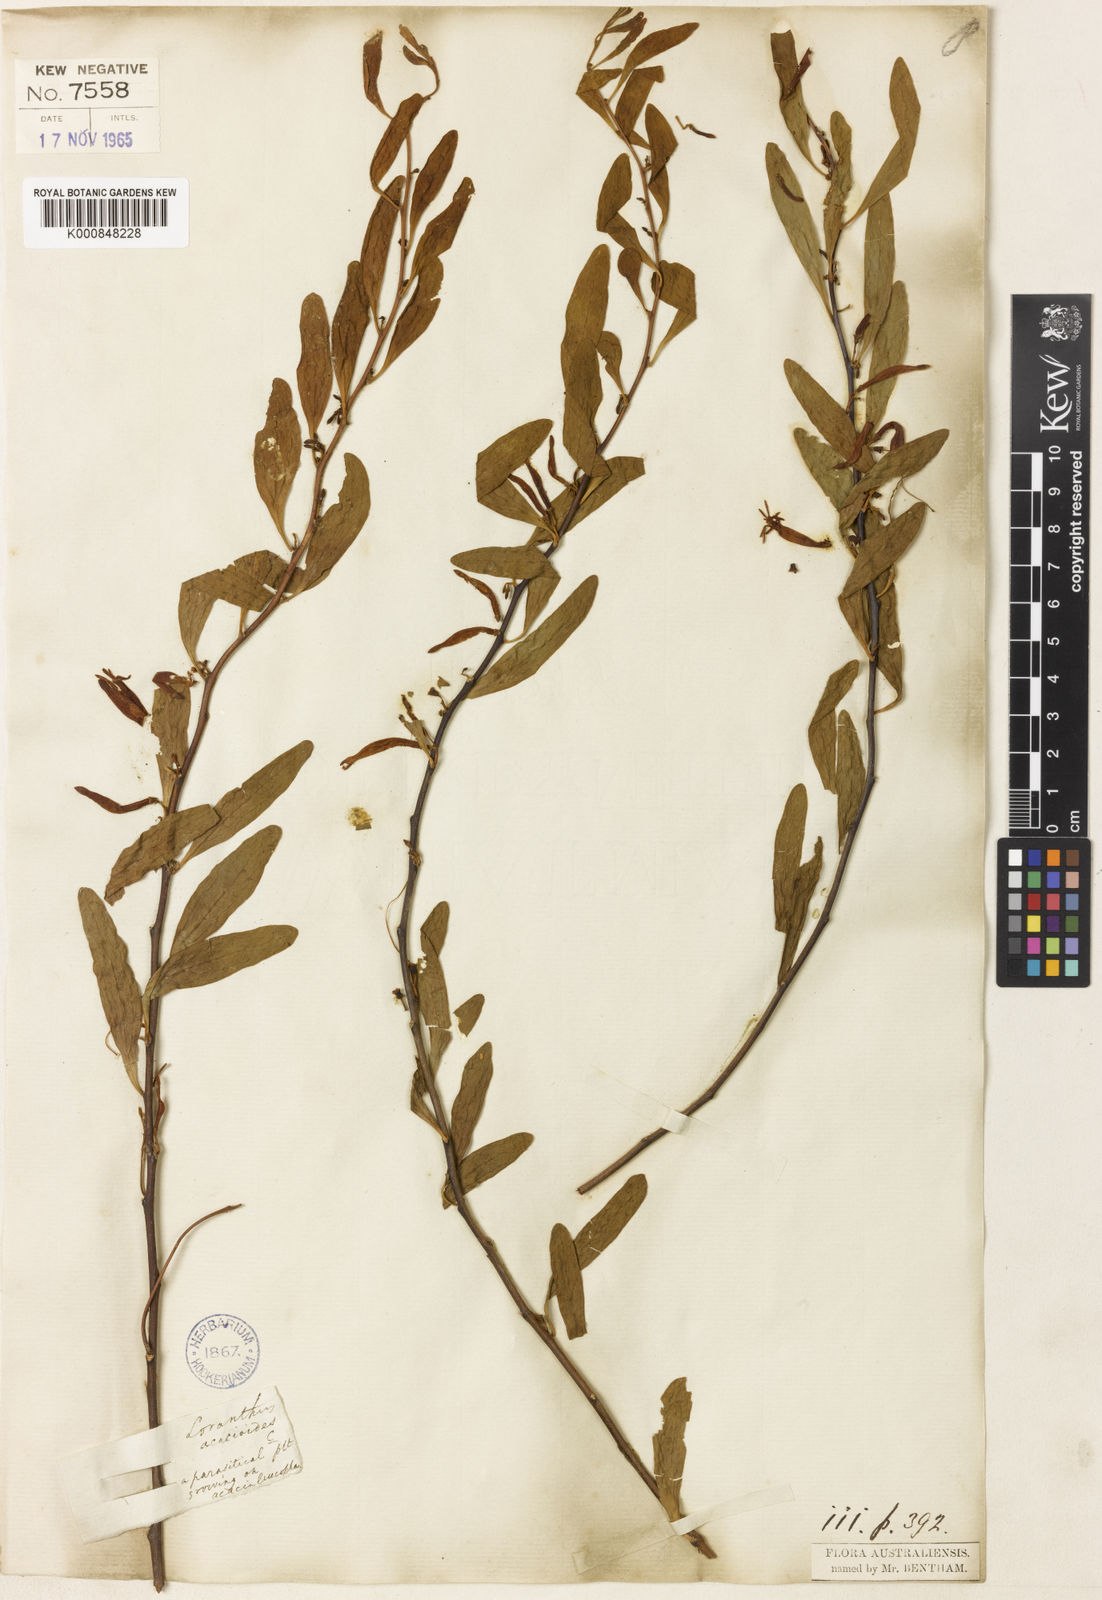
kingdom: Plantae
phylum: Tracheophyta
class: Magnoliopsida
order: Santalales
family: Loranthaceae
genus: Dendrophthoe
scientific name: Dendrophthoe acacioides
